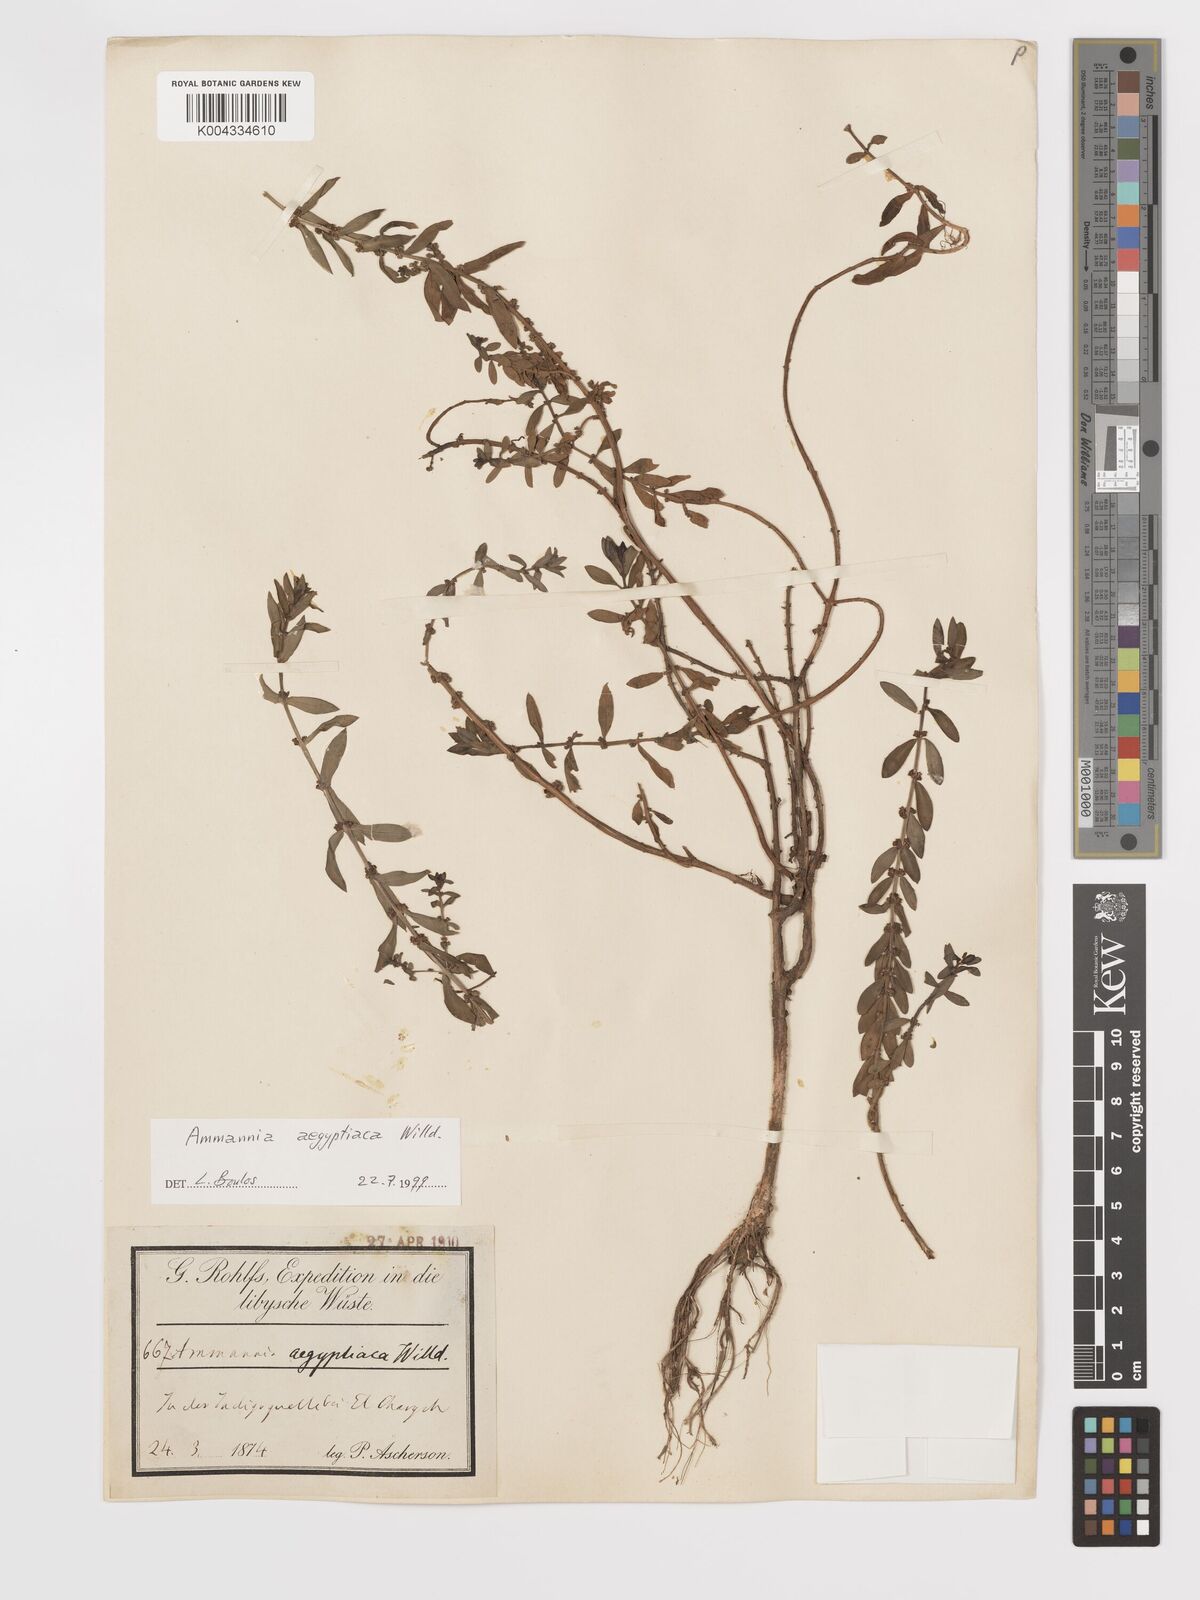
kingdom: Plantae
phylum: Tracheophyta
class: Magnoliopsida
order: Myrtales
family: Lythraceae
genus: Ammannia
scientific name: Ammannia
